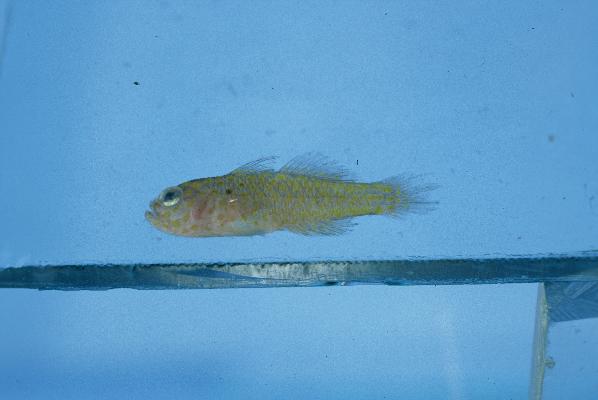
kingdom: Animalia
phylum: Chordata
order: Perciformes
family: Gobiidae
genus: Trimma
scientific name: Trimma flammeum
